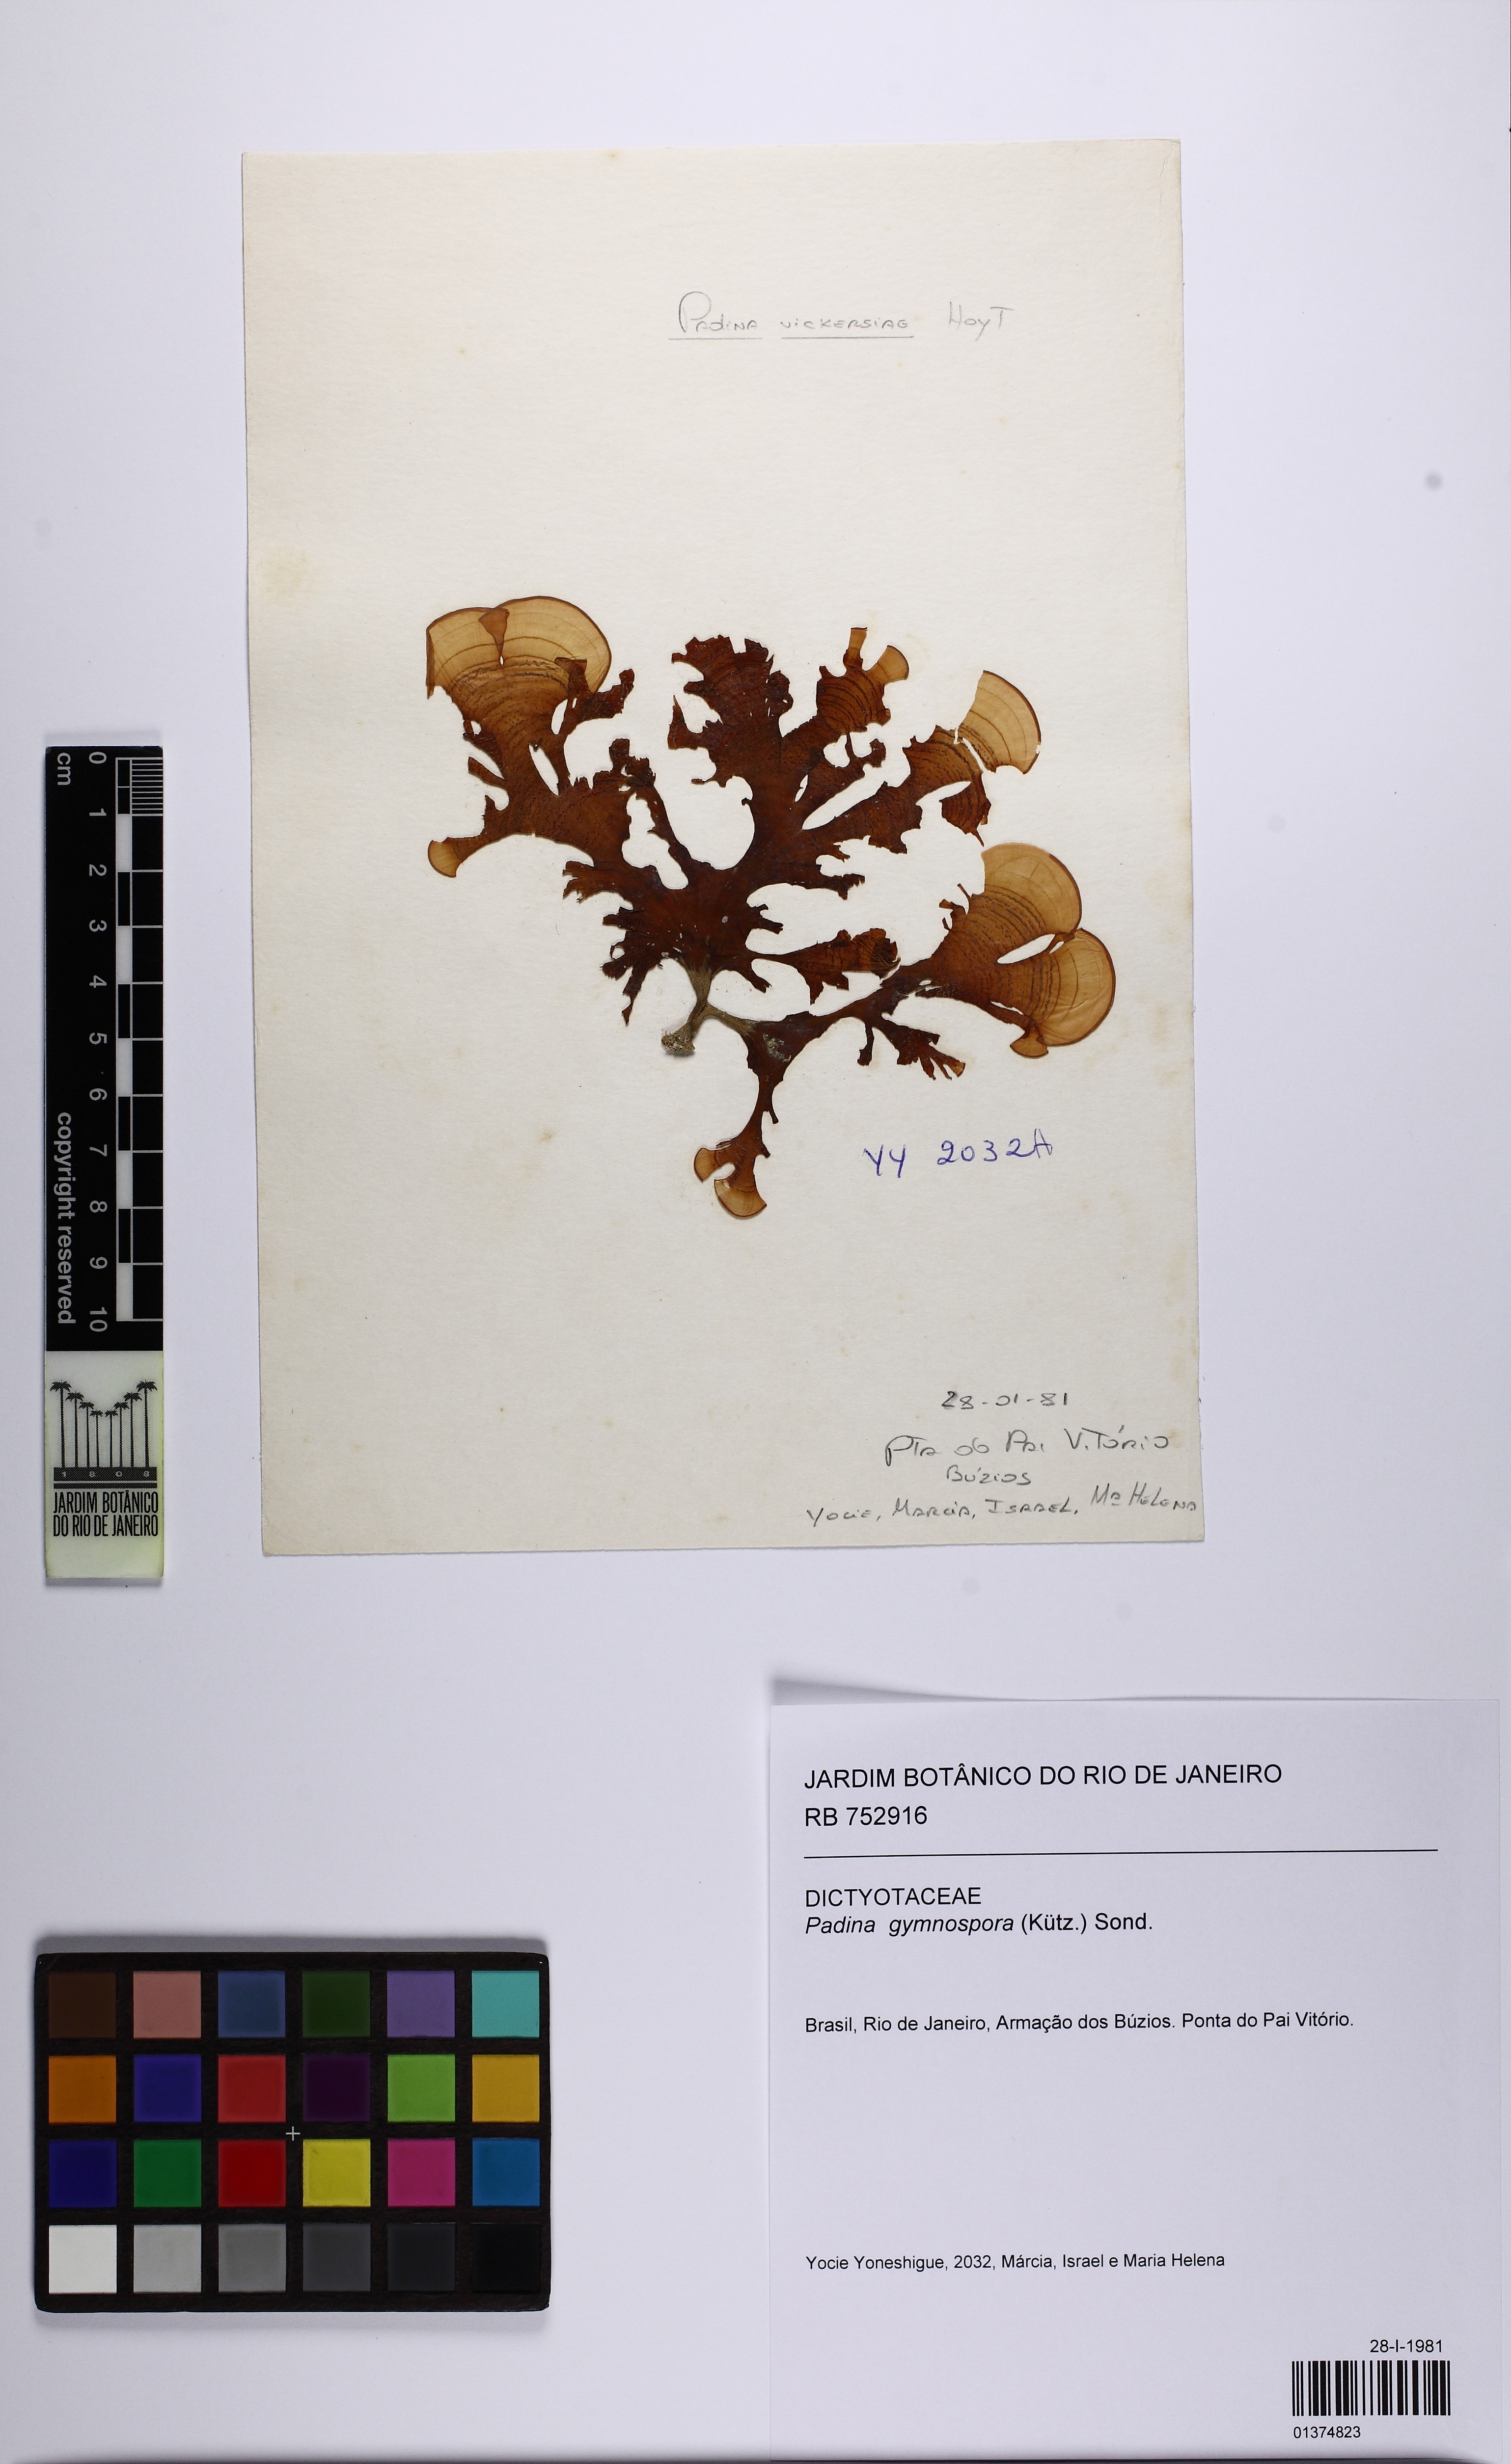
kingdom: Chromista
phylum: Ochrophyta
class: Phaeophyceae
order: Dictyotales
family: Dictyotaceae
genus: Padina
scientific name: Padina gymnospora
